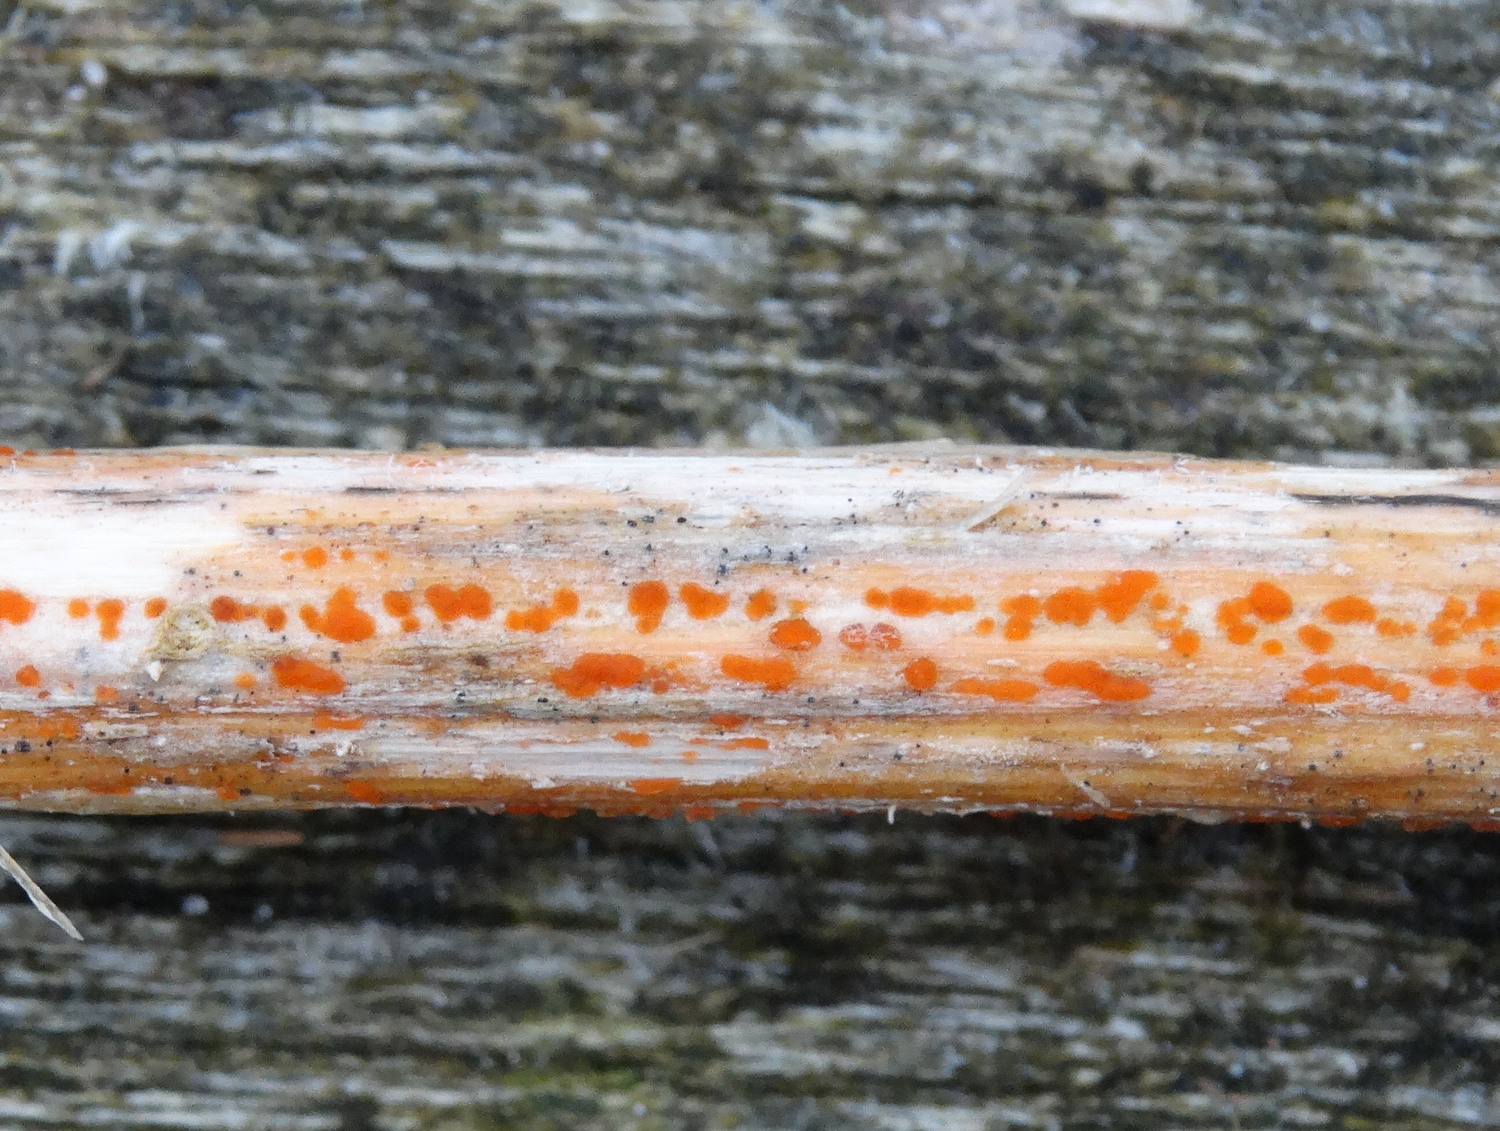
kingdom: Fungi
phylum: Ascomycota
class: Leotiomycetes
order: Helotiales
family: Calloriaceae
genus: Calloria
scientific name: Calloria urticae
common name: nælde-orangeskive
